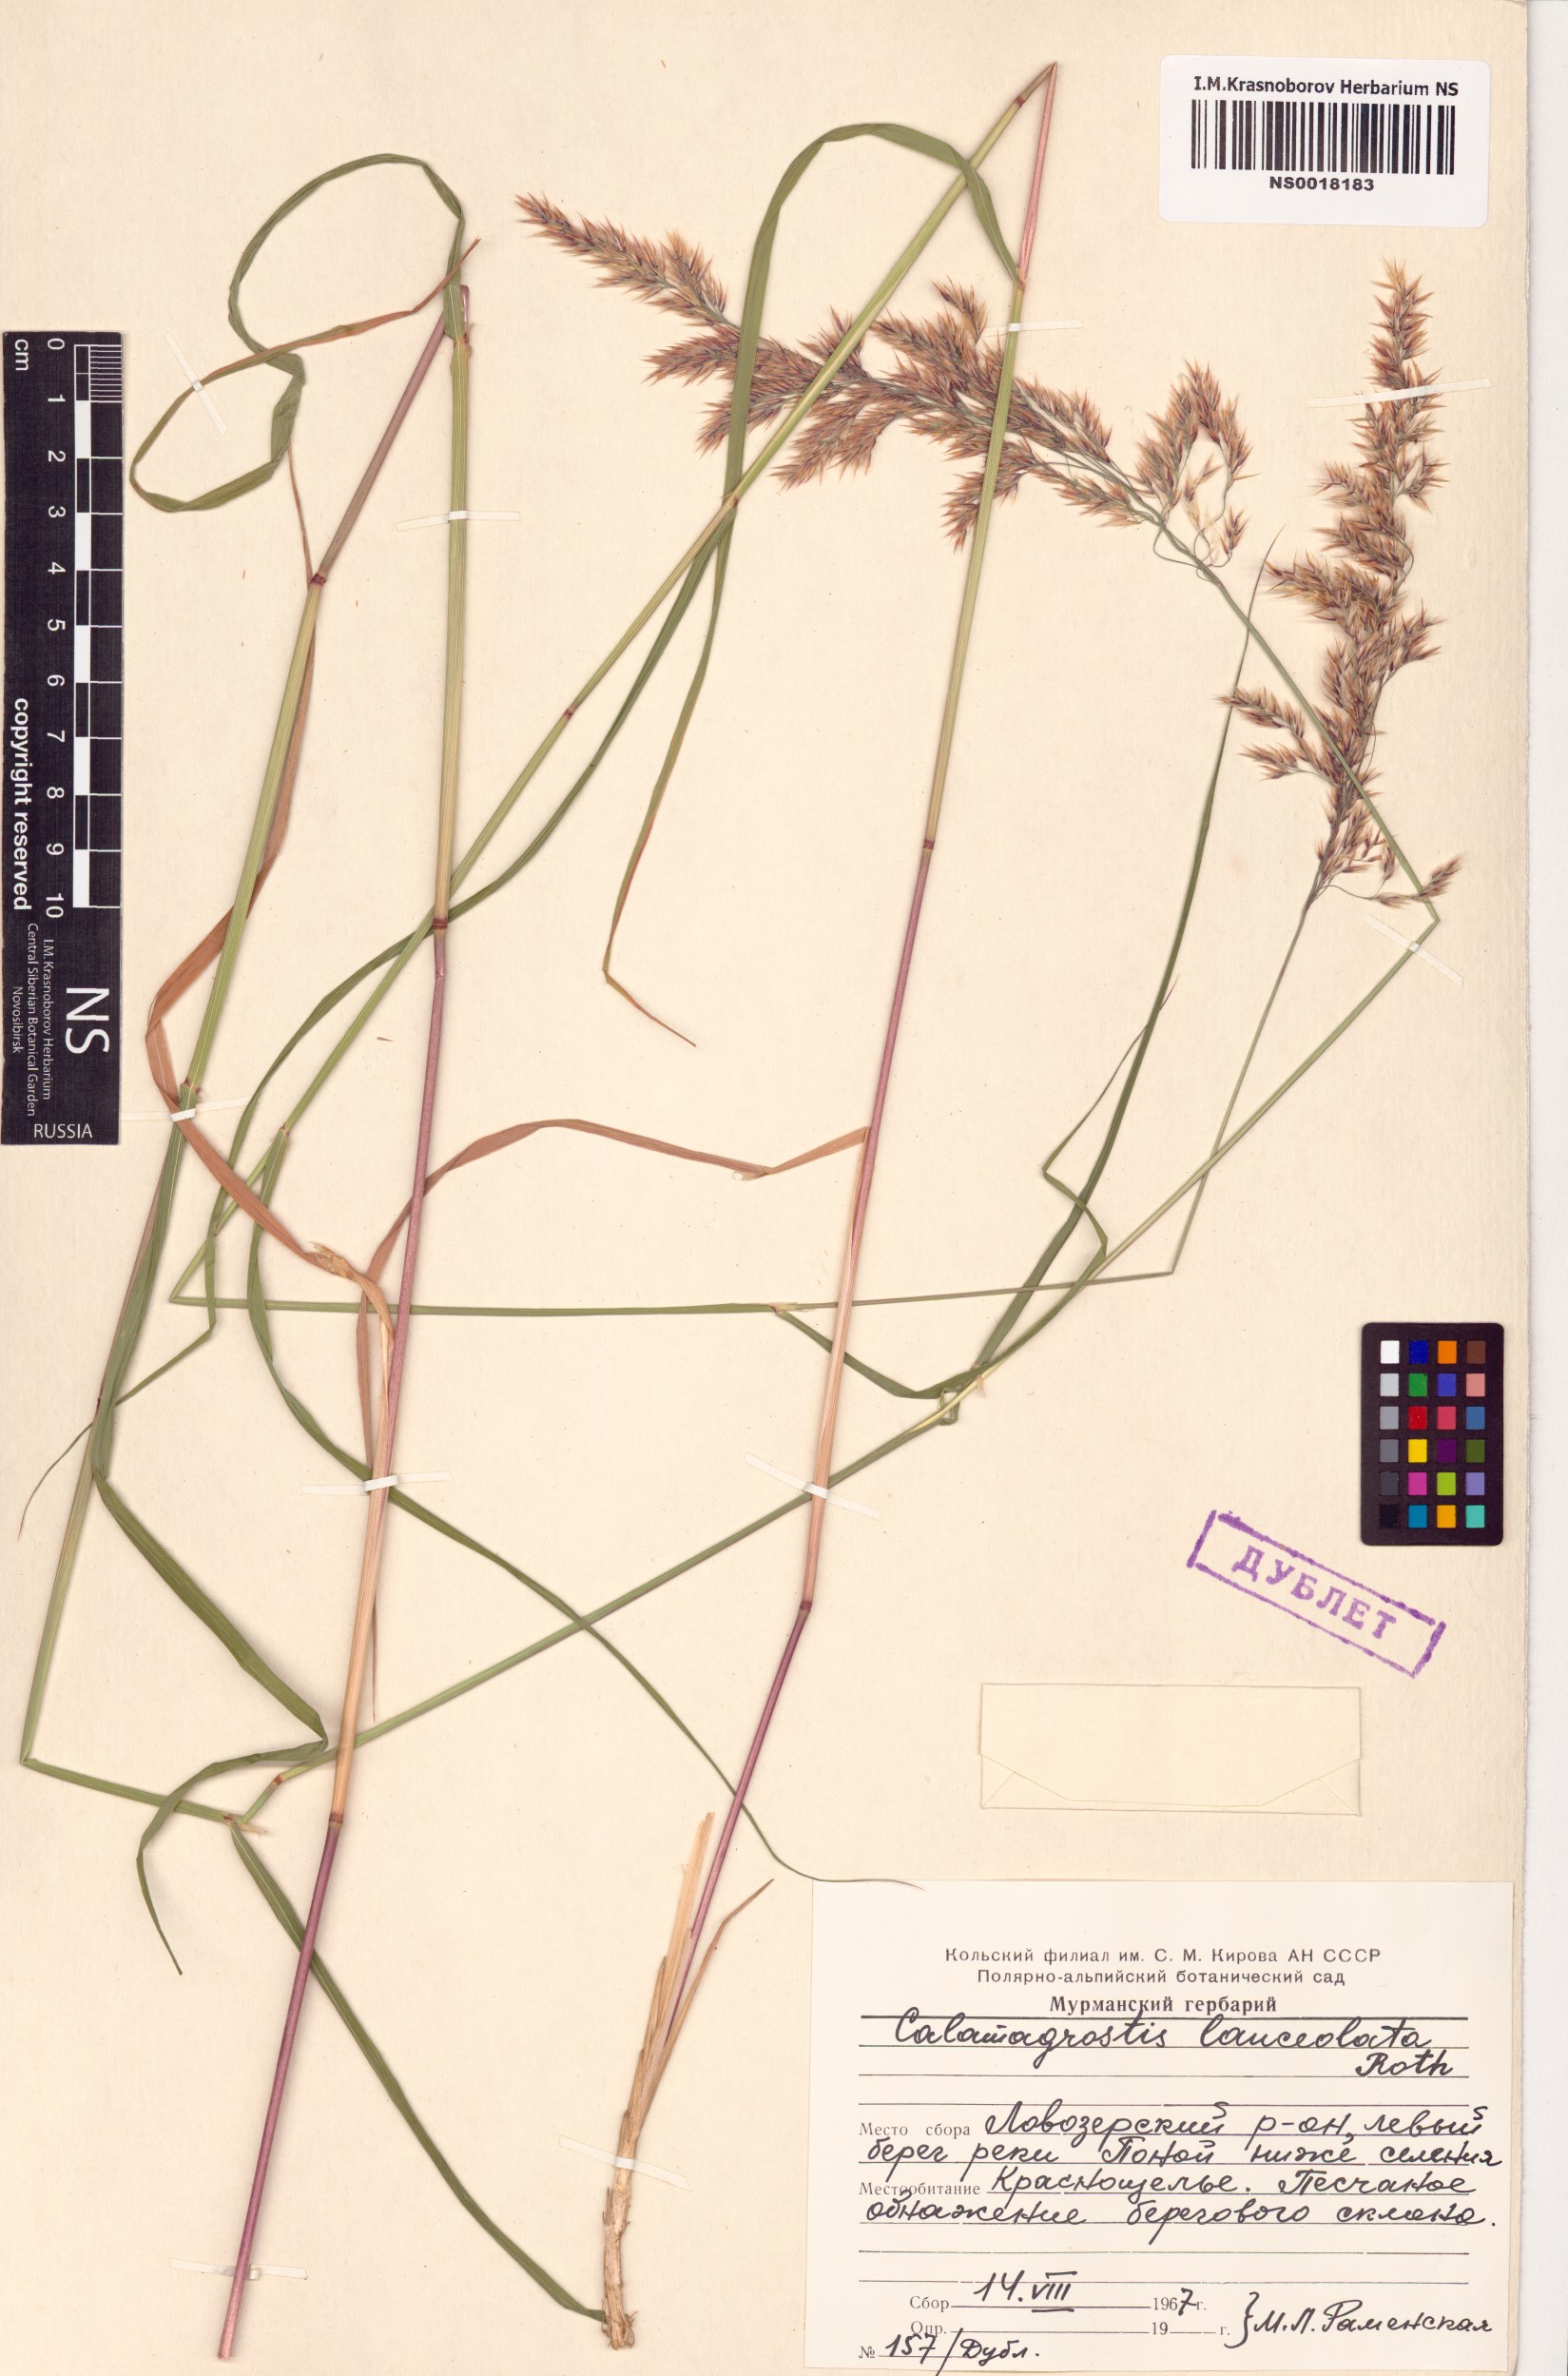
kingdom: Plantae
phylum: Tracheophyta
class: Liliopsida
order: Poales
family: Poaceae
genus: Calamagrostis
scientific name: Calamagrostis canescens
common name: Purple small-reed
